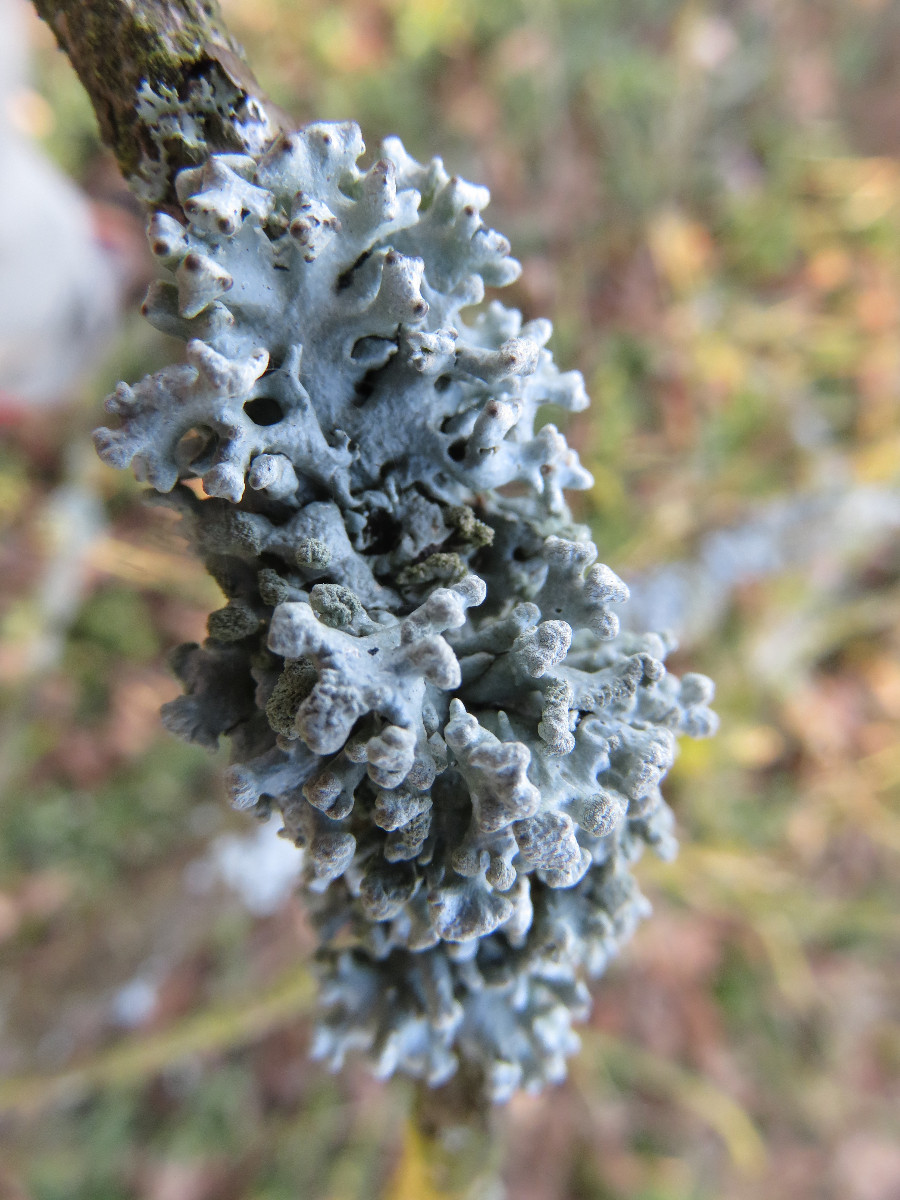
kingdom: Fungi
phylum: Ascomycota
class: Lecanoromycetes
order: Lecanorales
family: Parmeliaceae
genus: Hypogymnia
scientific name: Hypogymnia tubulosa
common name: finger-kvistlav
